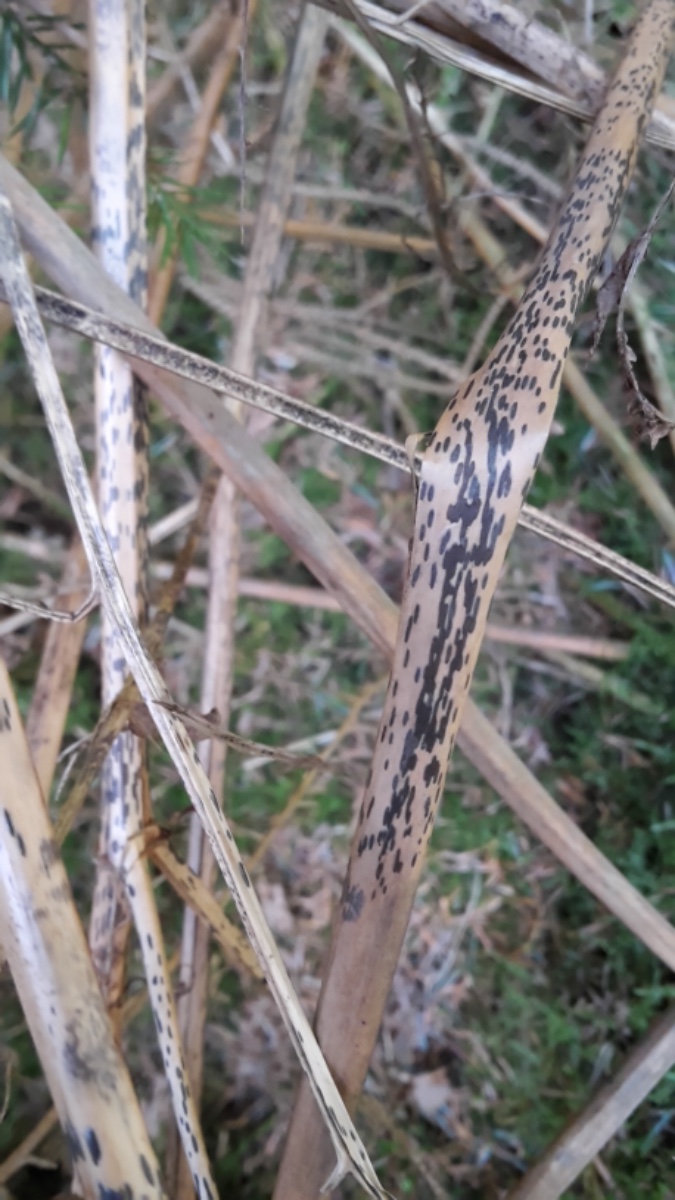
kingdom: Fungi
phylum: Ascomycota
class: Dothideomycetes
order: Pleosporales
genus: Rhopographus
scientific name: Rhopographus filicinus
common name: Bracken map
